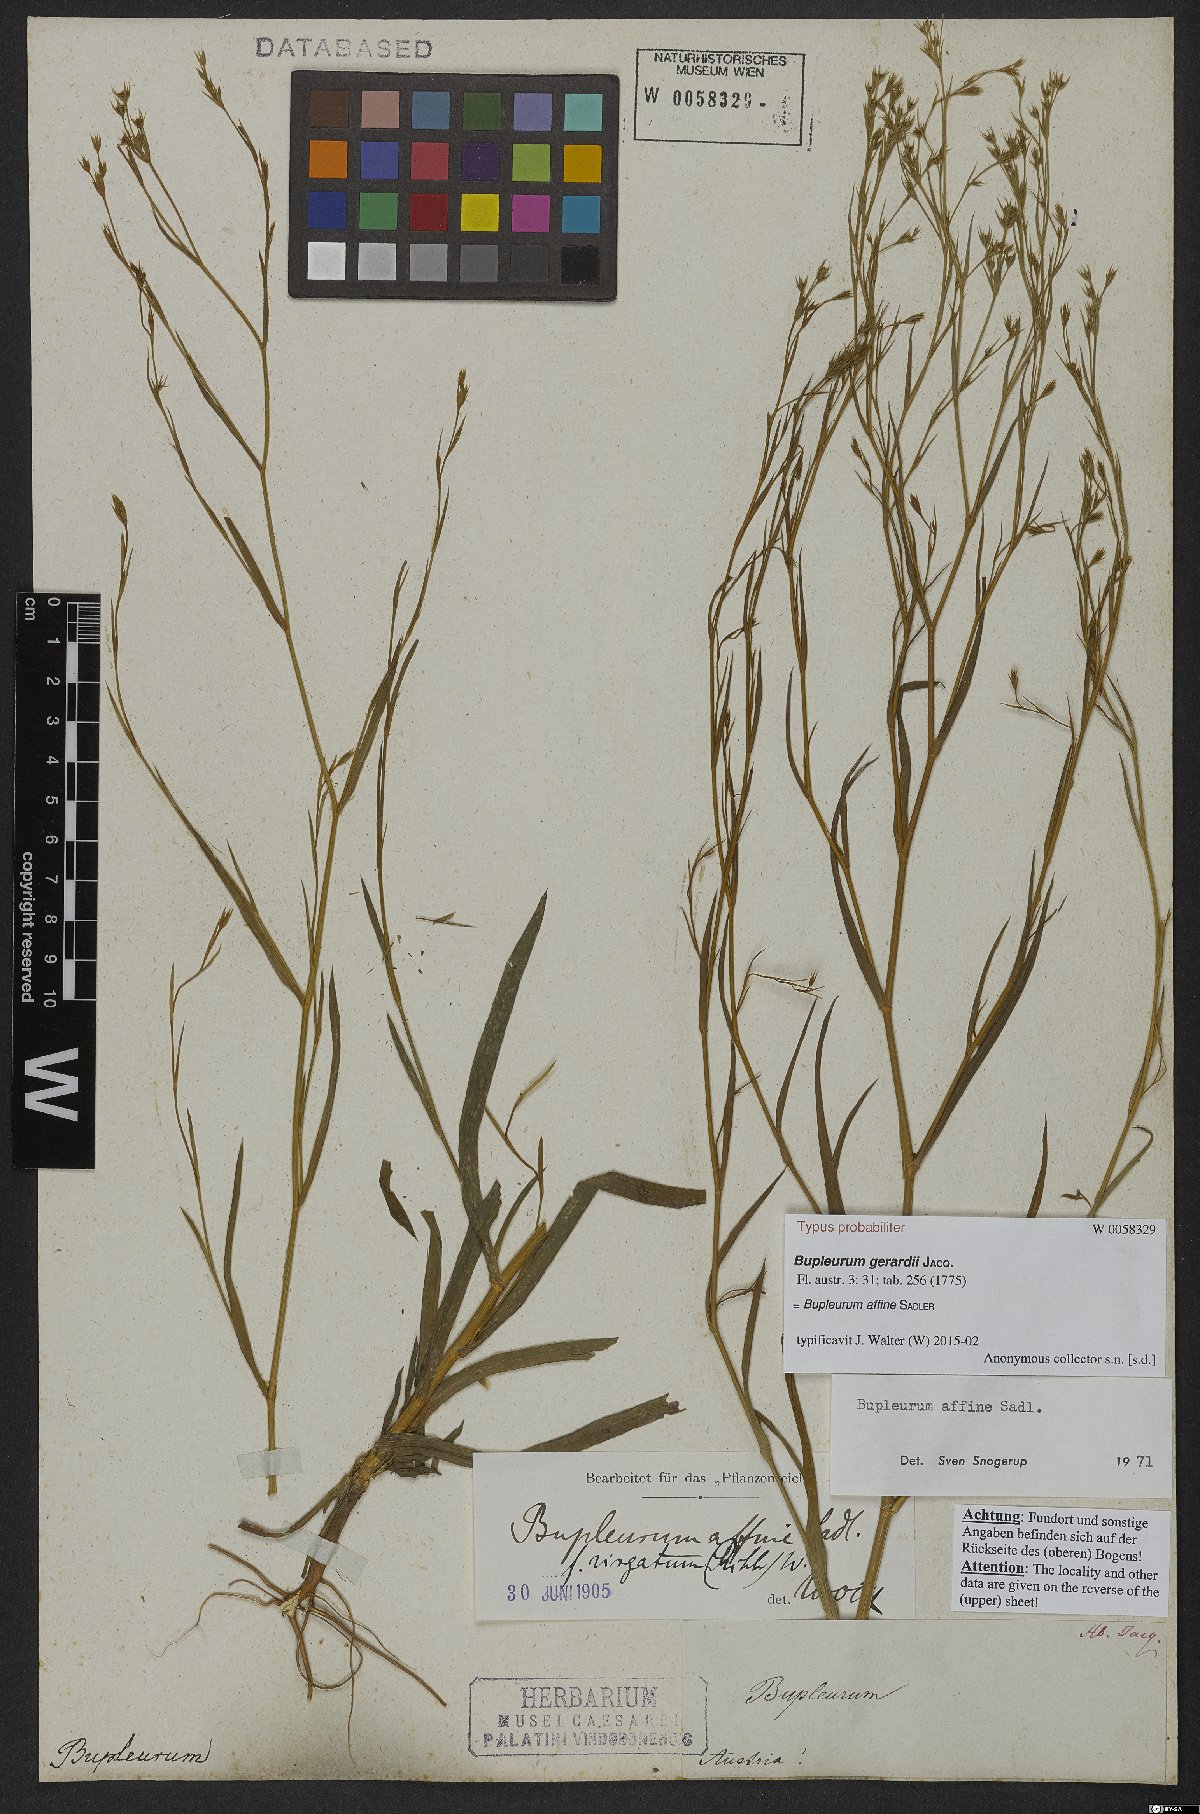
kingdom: Plantae
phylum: Tracheophyta
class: Magnoliopsida
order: Apiales
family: Apiaceae
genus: Bupleurum
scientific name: Bupleurum affine
